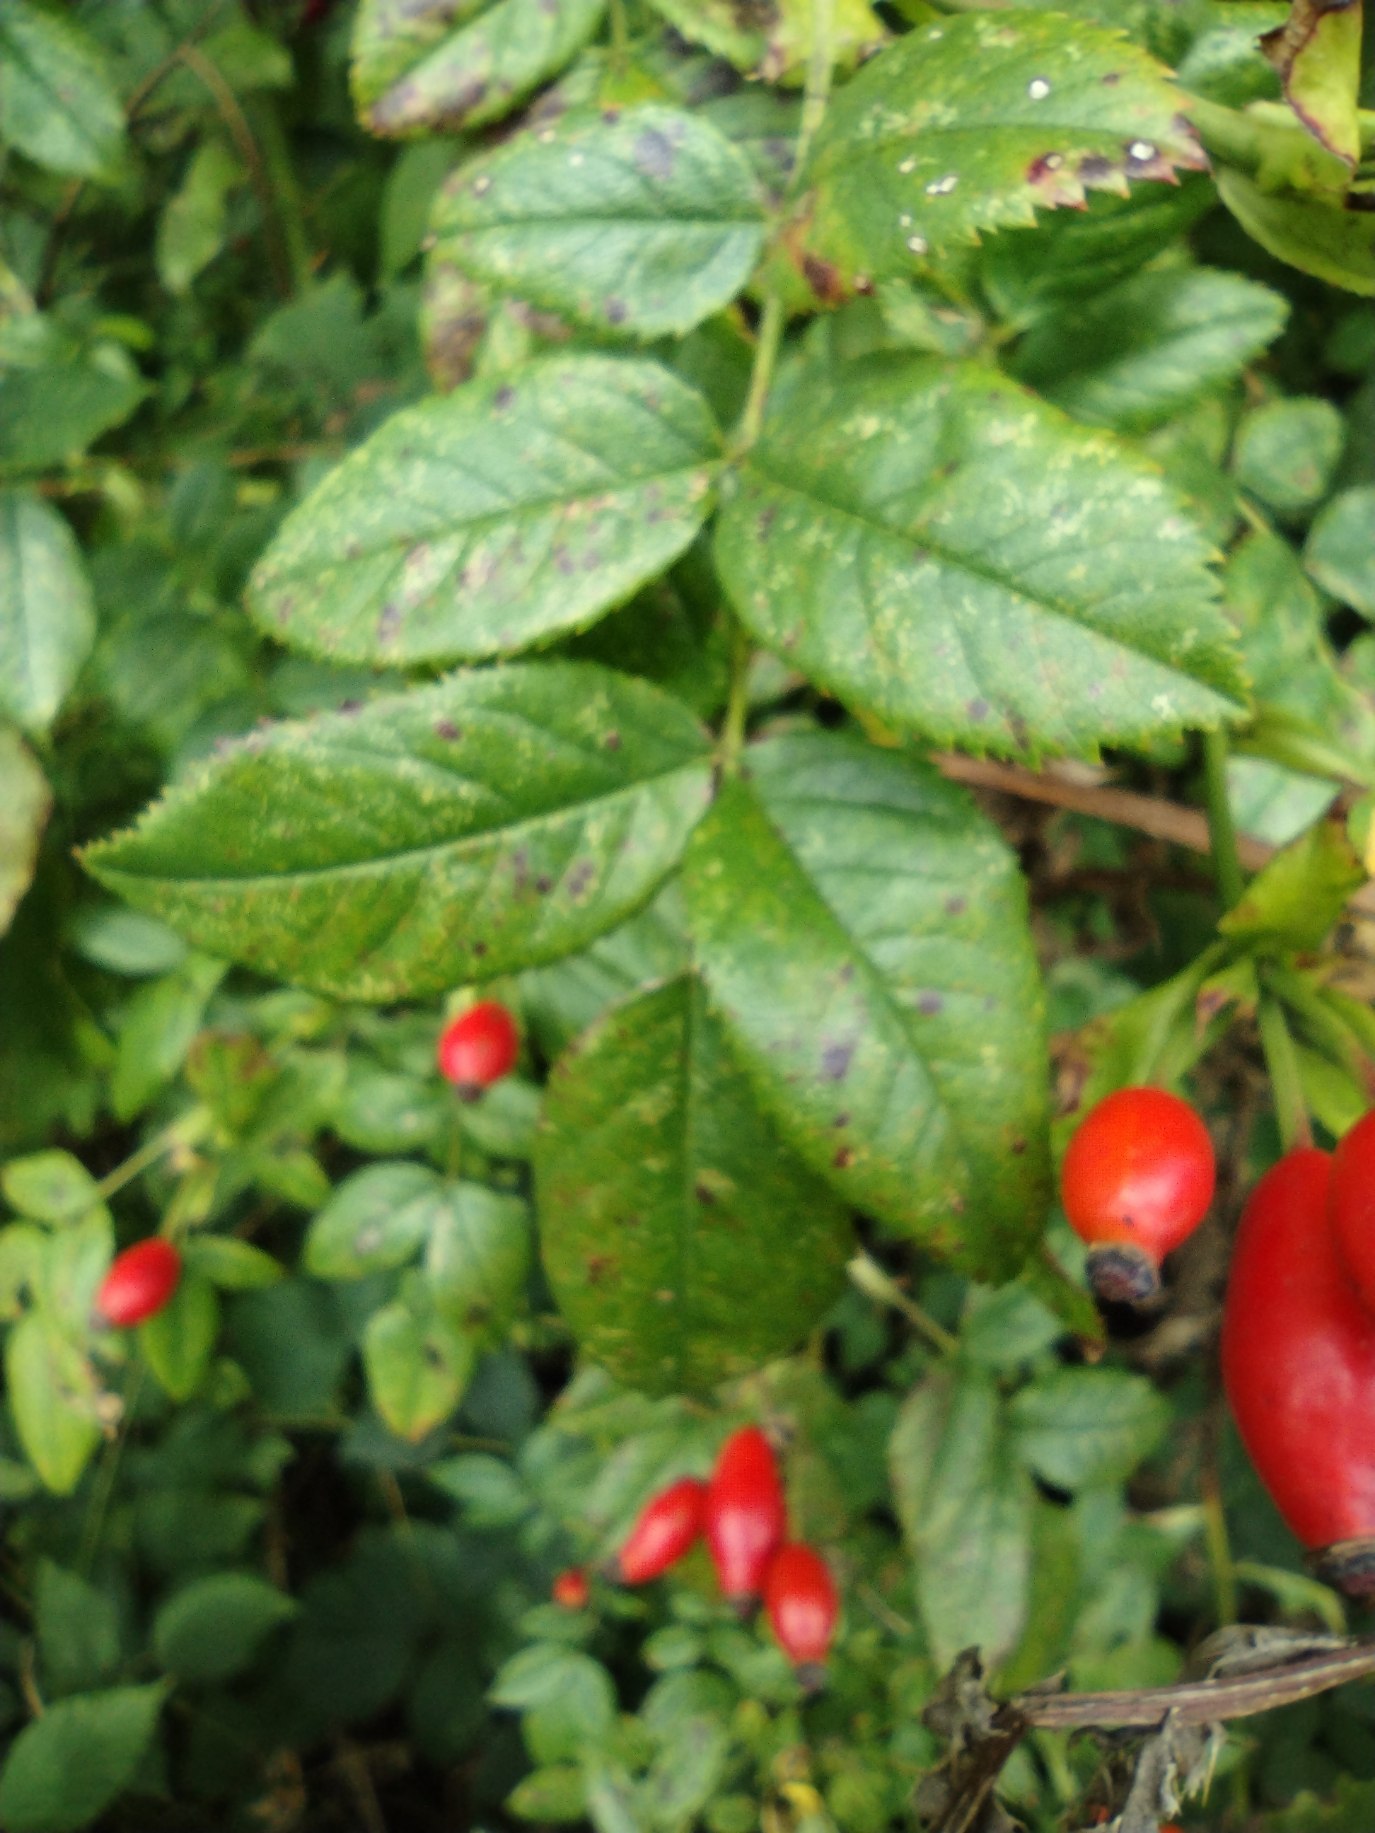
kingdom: Plantae
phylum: Tracheophyta
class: Magnoliopsida
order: Rosales
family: Rosaceae
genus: Rosa
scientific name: Rosa canina
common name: Glat hunde-rose
